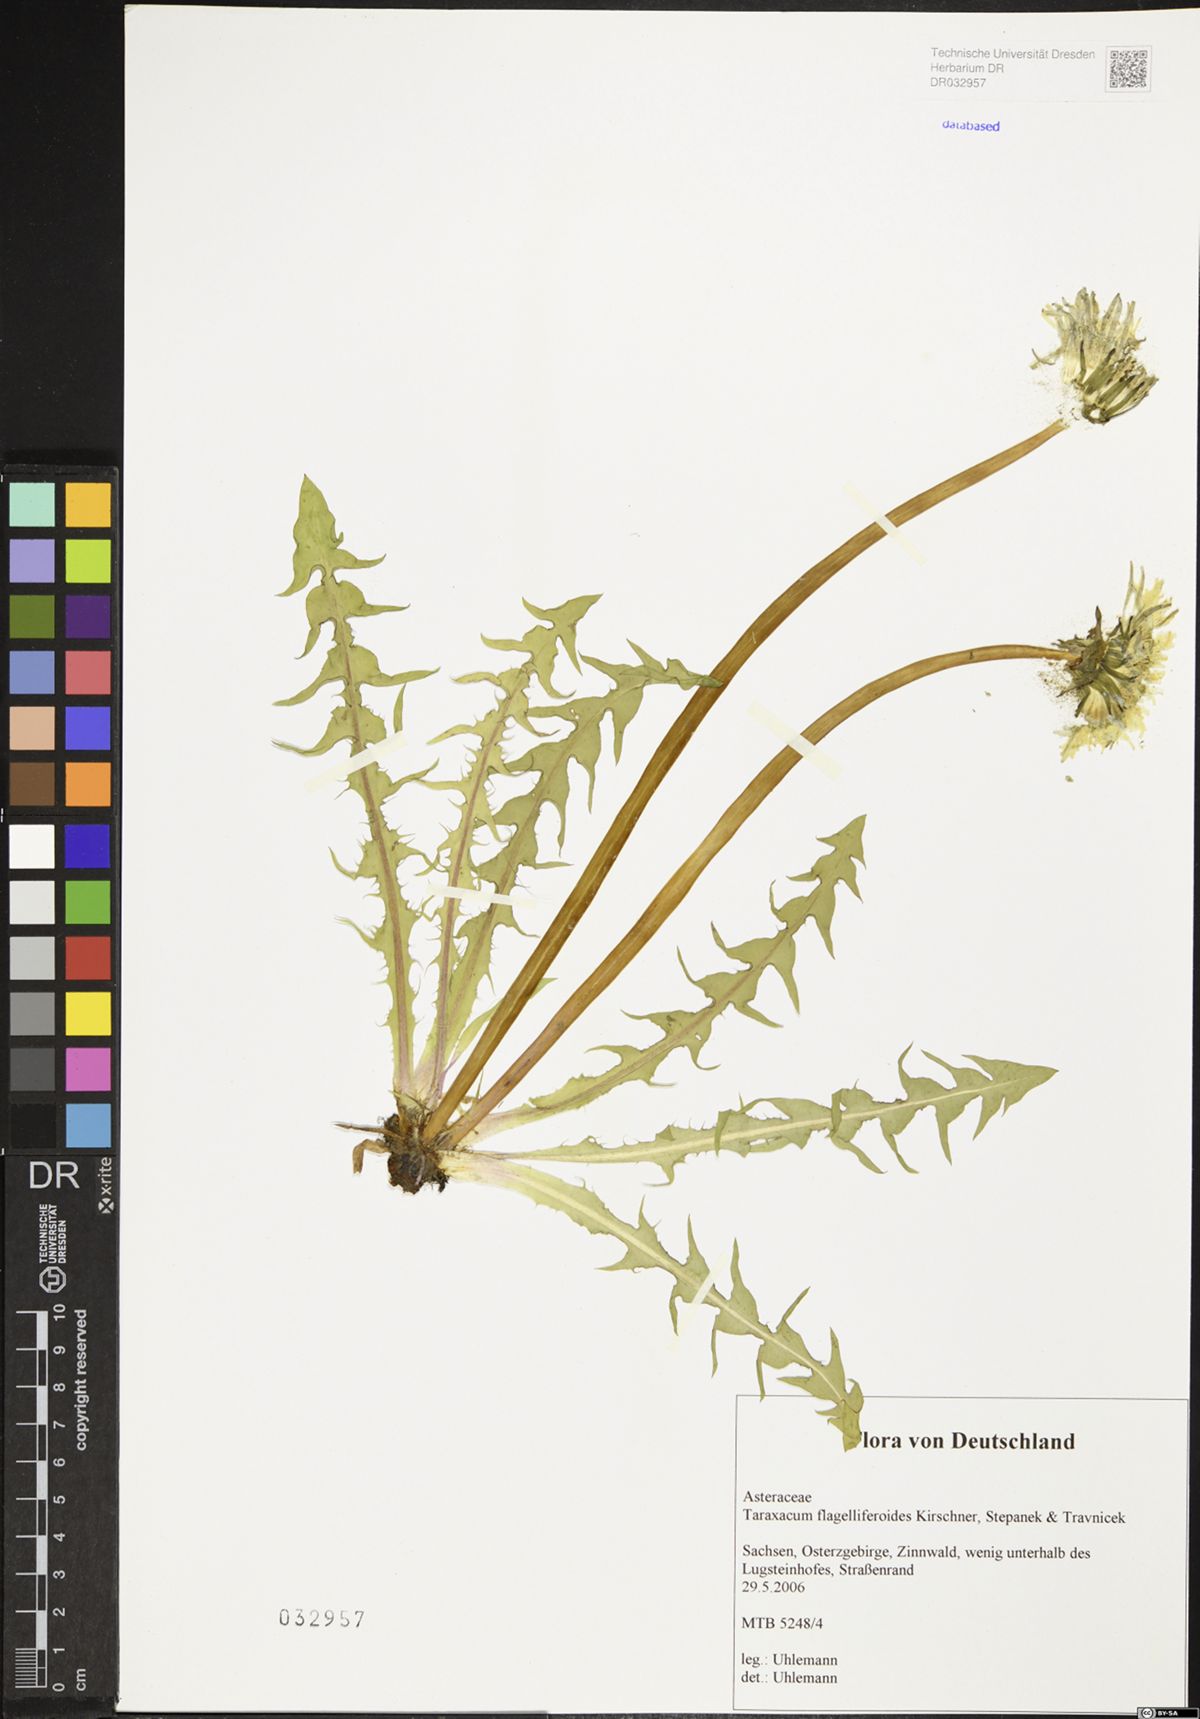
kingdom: Plantae
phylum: Tracheophyta
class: Magnoliopsida
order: Asterales
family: Asteraceae
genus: Taraxacum
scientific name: Taraxacum
